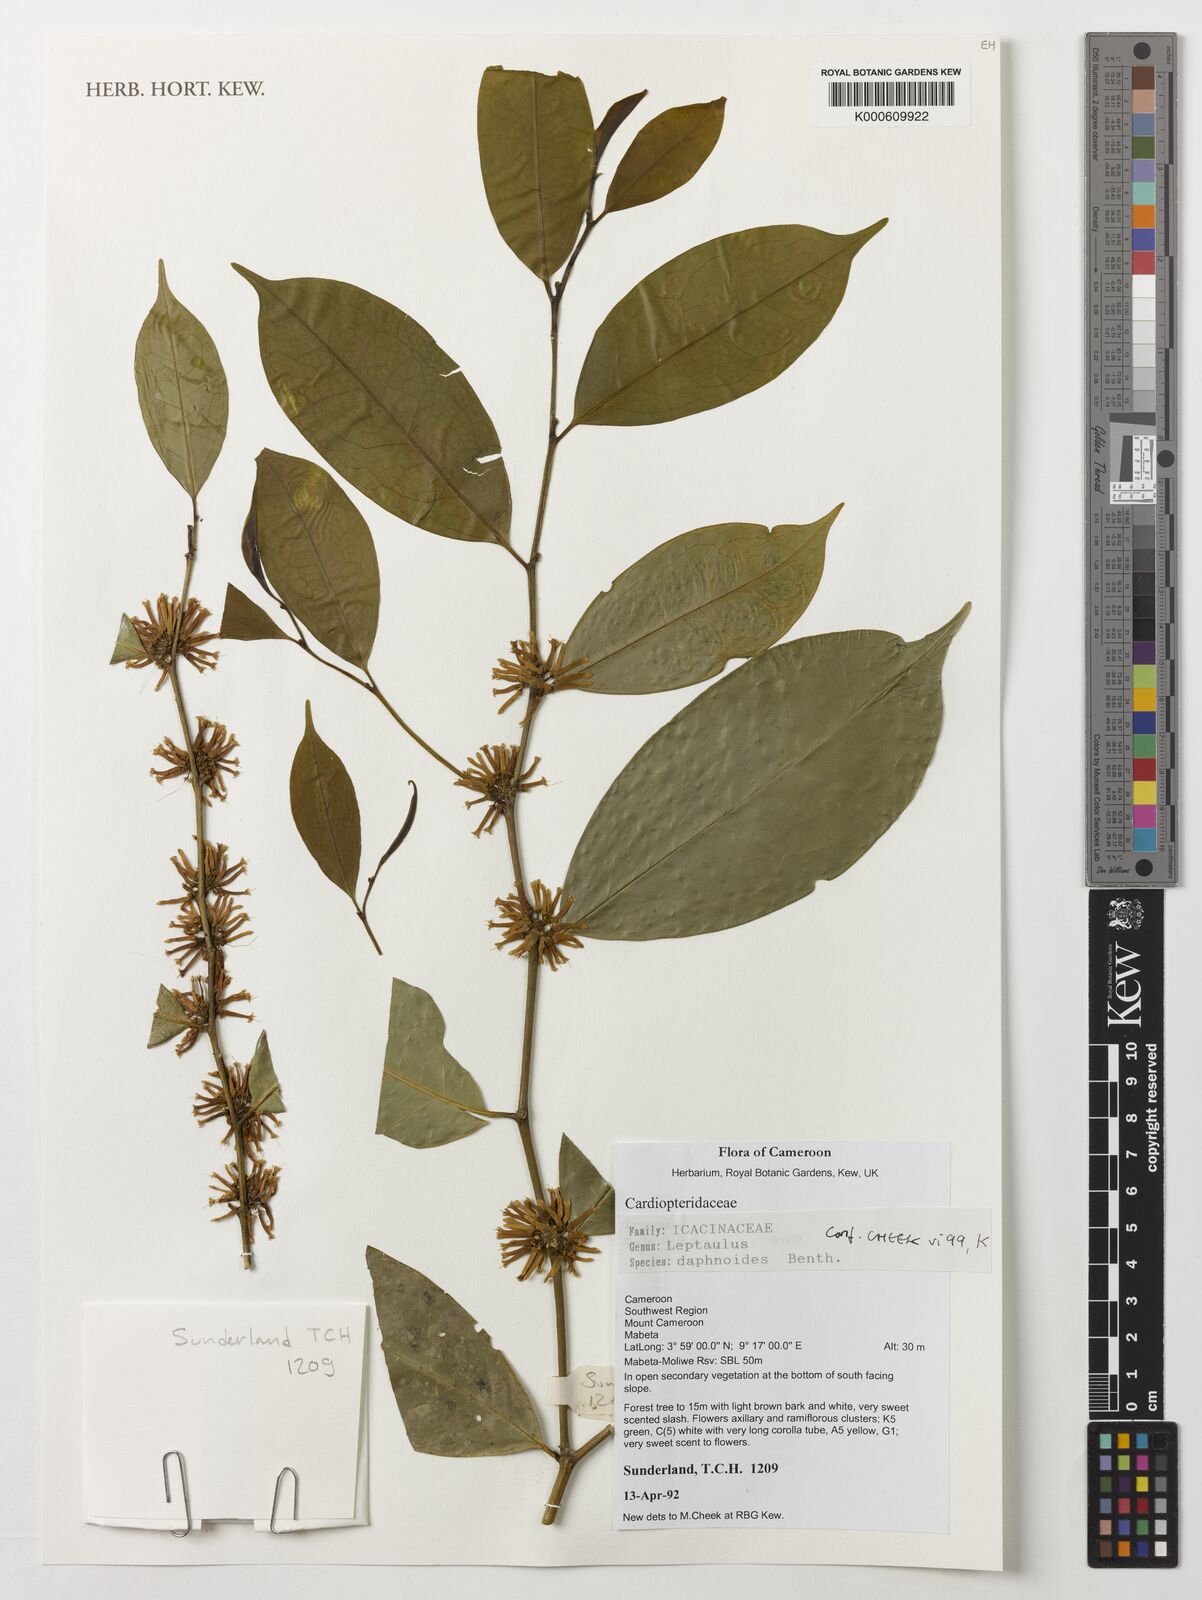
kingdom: Plantae
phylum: Tracheophyta
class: Magnoliopsida
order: Icacinales
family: Icacinaceae
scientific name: Icacinaceae
